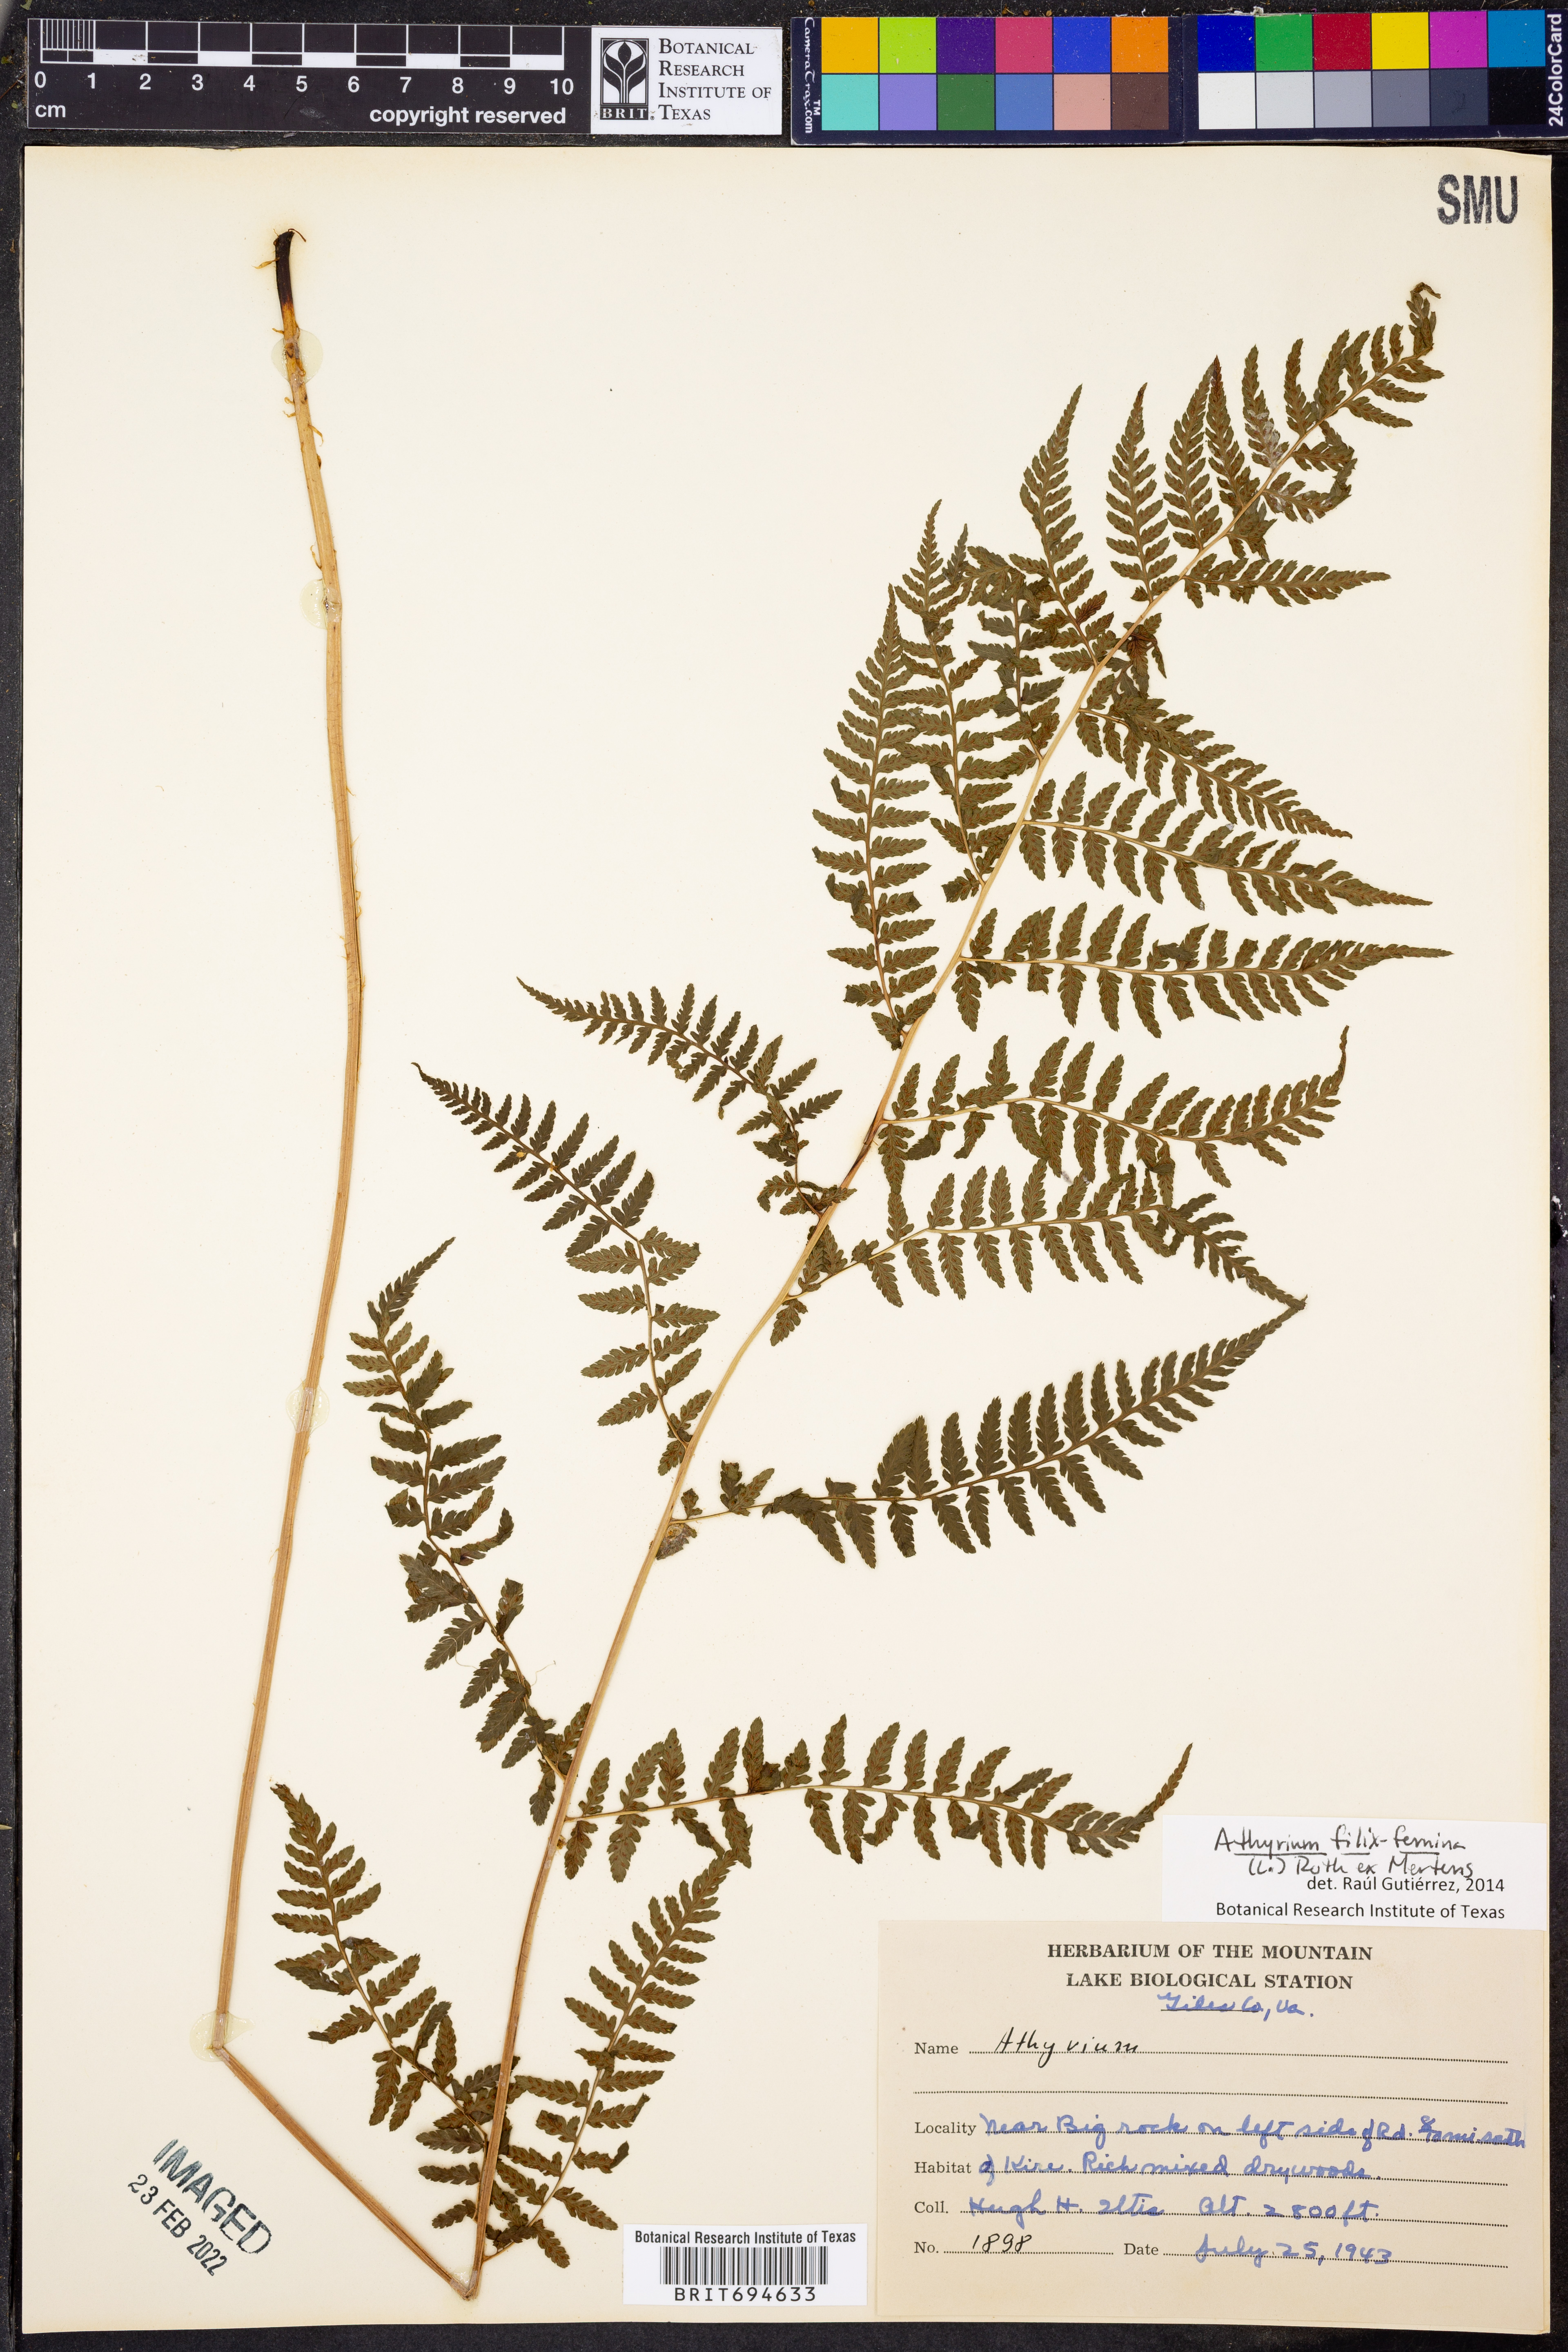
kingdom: Plantae
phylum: Tracheophyta
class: Polypodiopsida
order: Polypodiales
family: Athyriaceae
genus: Athyrium
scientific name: Athyrium filix-femina
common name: Lady fern
